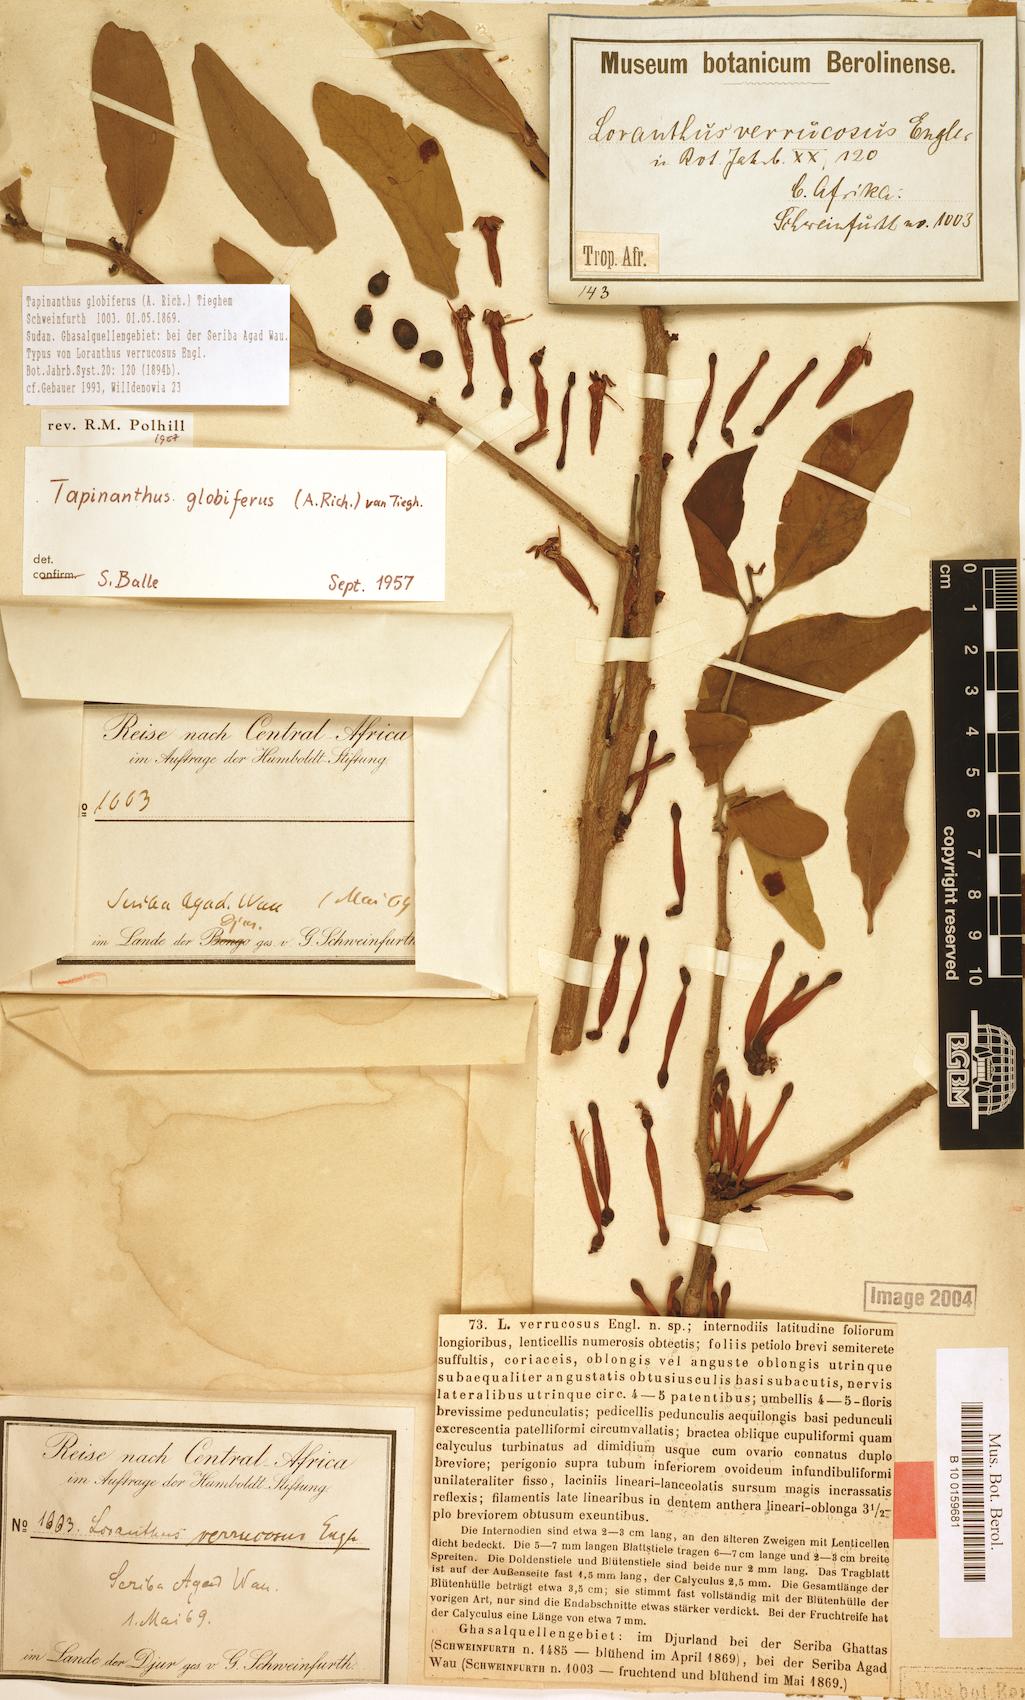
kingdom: Plantae
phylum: Tracheophyta
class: Magnoliopsida
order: Santalales
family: Loranthaceae
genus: Tapinanthus
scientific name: Tapinanthus globiferus
